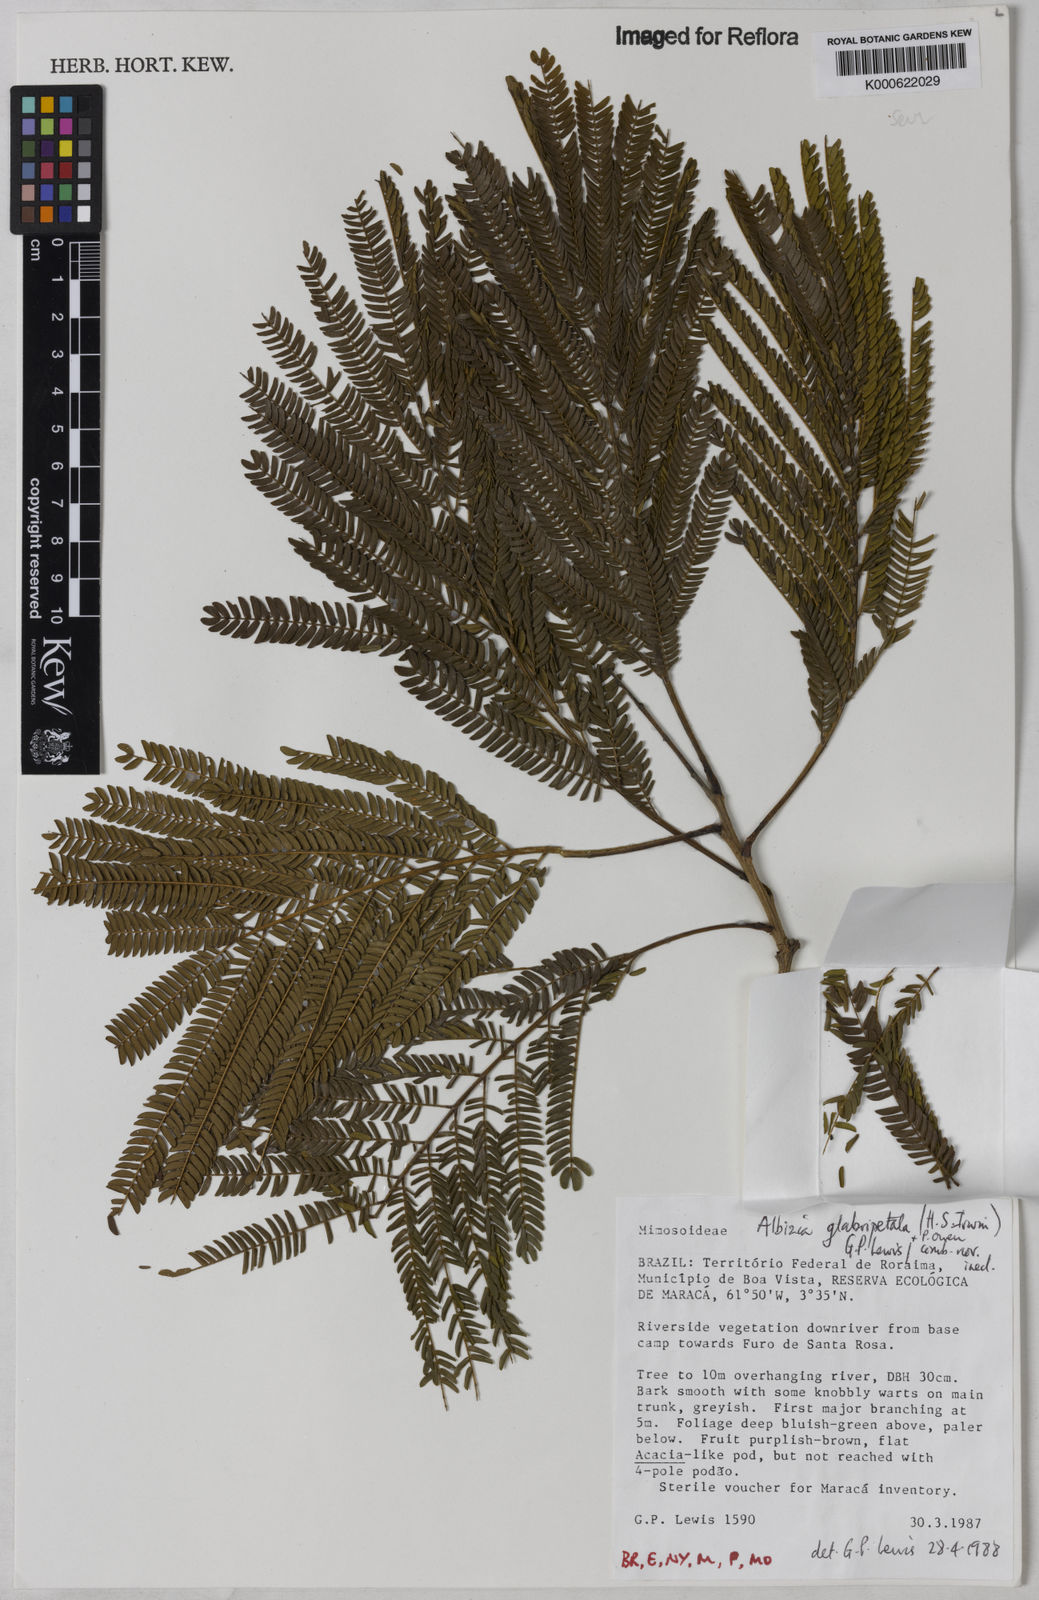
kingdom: Plantae
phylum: Tracheophyta
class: Magnoliopsida
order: Fabales
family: Fabaceae
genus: Albizia
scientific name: Albizia glabripetala
